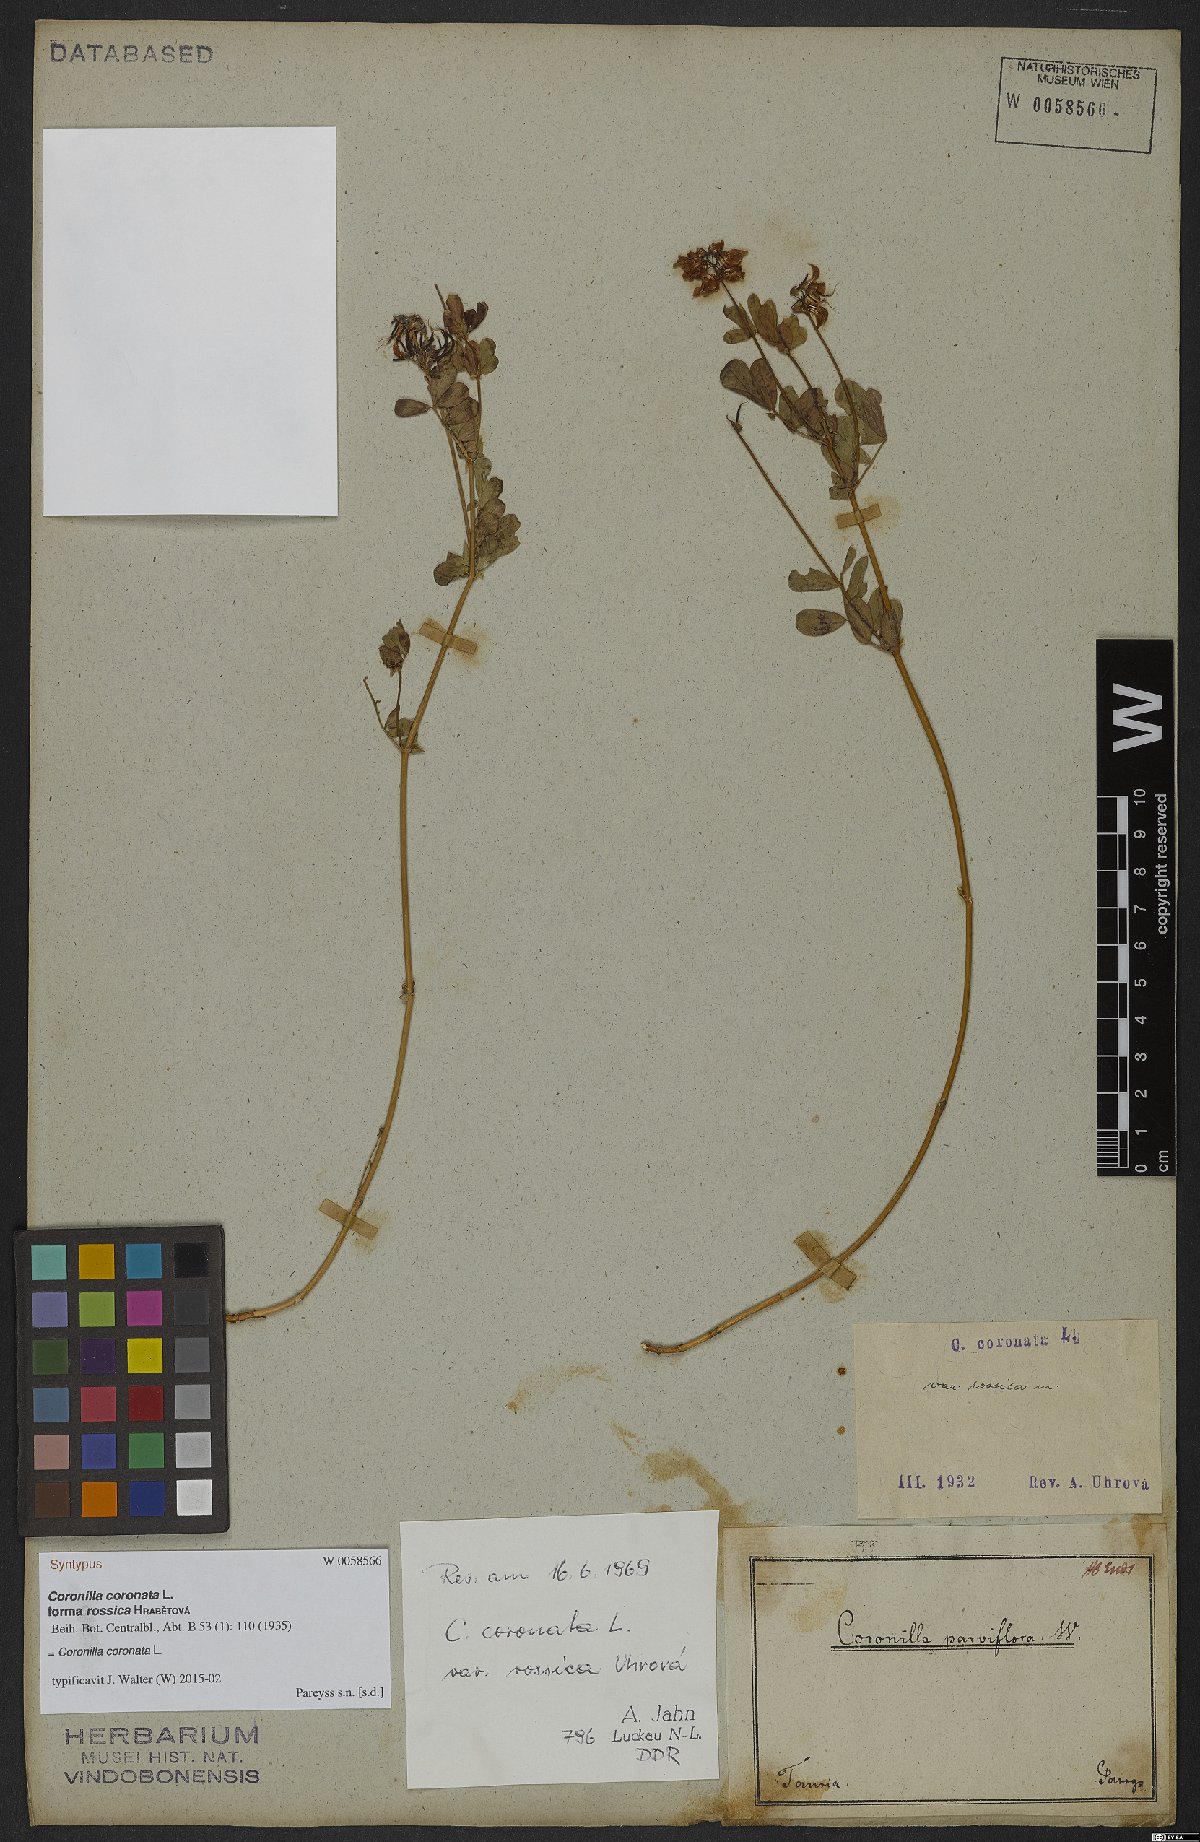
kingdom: Plantae
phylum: Tracheophyta
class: Magnoliopsida
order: Fabales
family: Fabaceae
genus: Coronilla
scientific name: Coronilla coronata
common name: Scorpion-vetch
